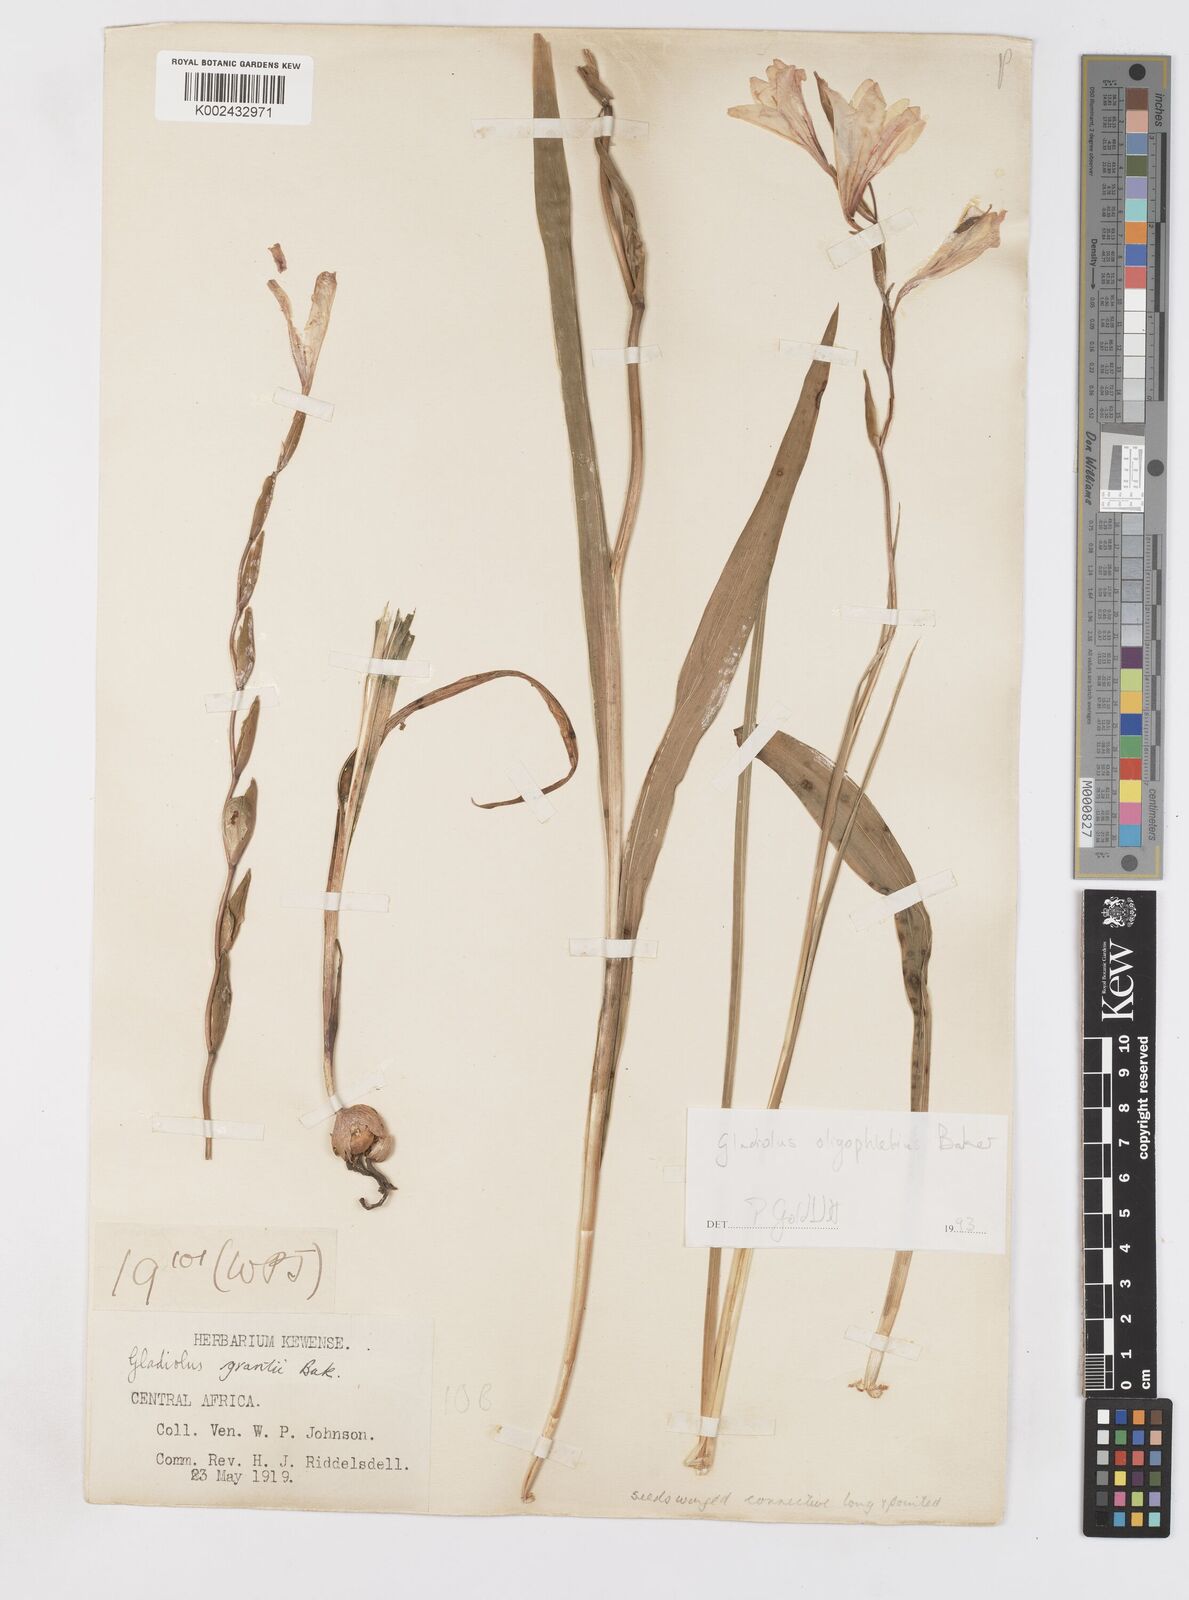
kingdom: Plantae
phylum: Tracheophyta
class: Liliopsida
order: Asparagales
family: Iridaceae
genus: Gladiolus
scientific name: Gladiolus oligophlebius
